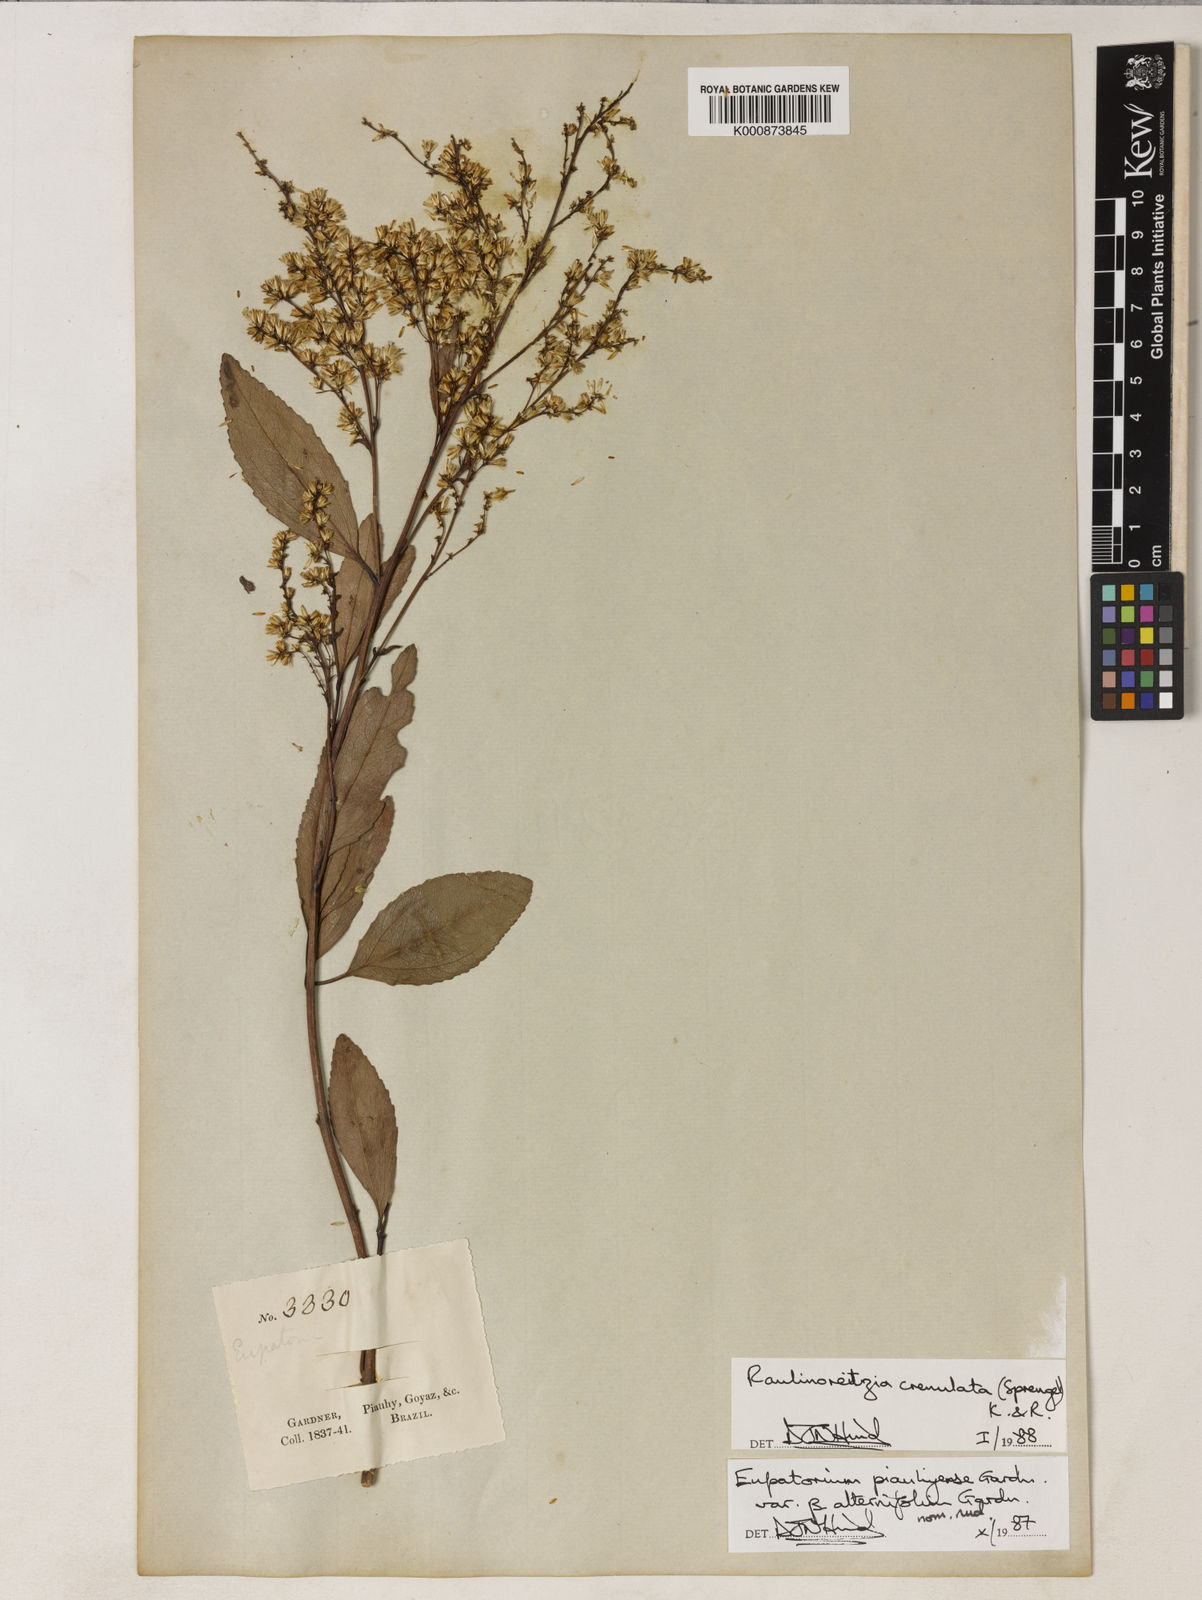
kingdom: Plantae
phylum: Tracheophyta
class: Magnoliopsida
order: Asterales
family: Asteraceae
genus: Raulinoreitzia
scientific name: Raulinoreitzia crenulata
